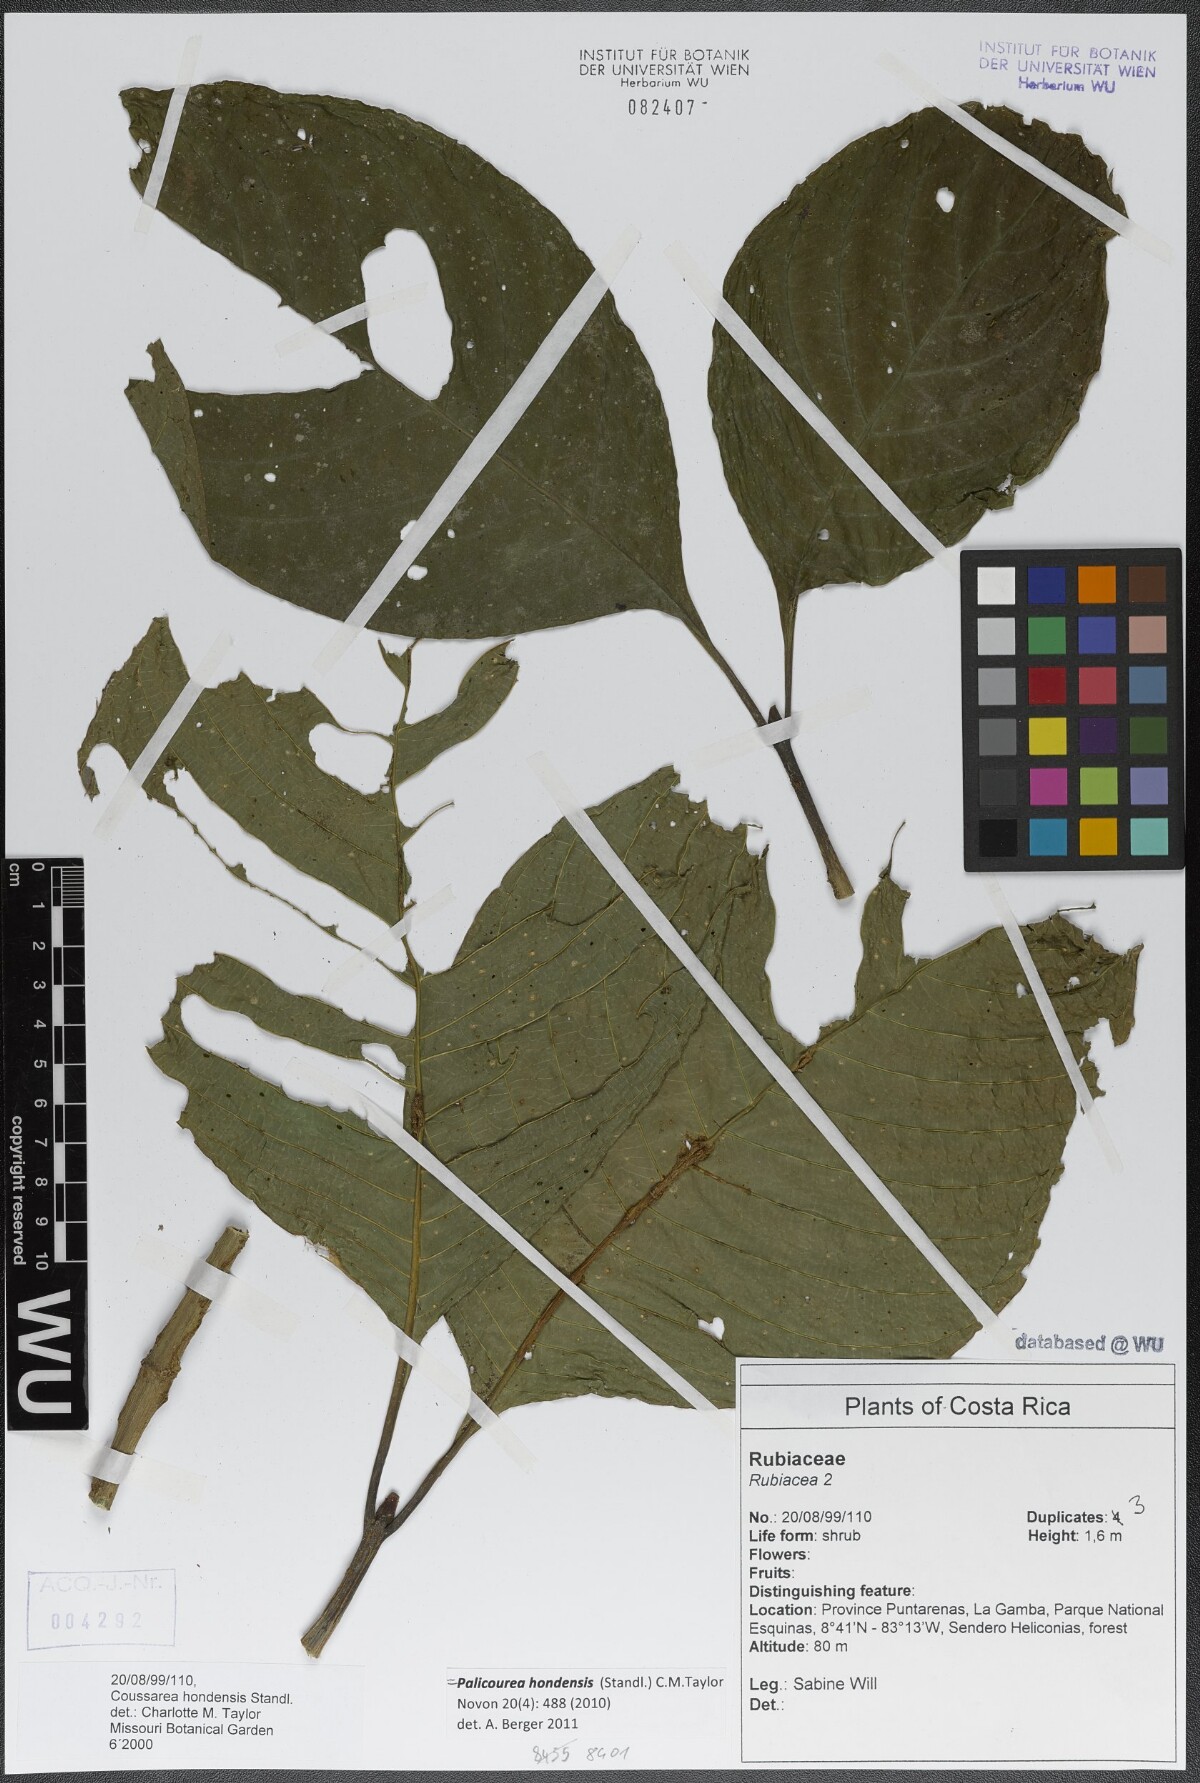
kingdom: Plantae
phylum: Tracheophyta
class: Magnoliopsida
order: Gentianales
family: Rubiaceae
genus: Palicourea
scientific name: Palicourea hondensis
